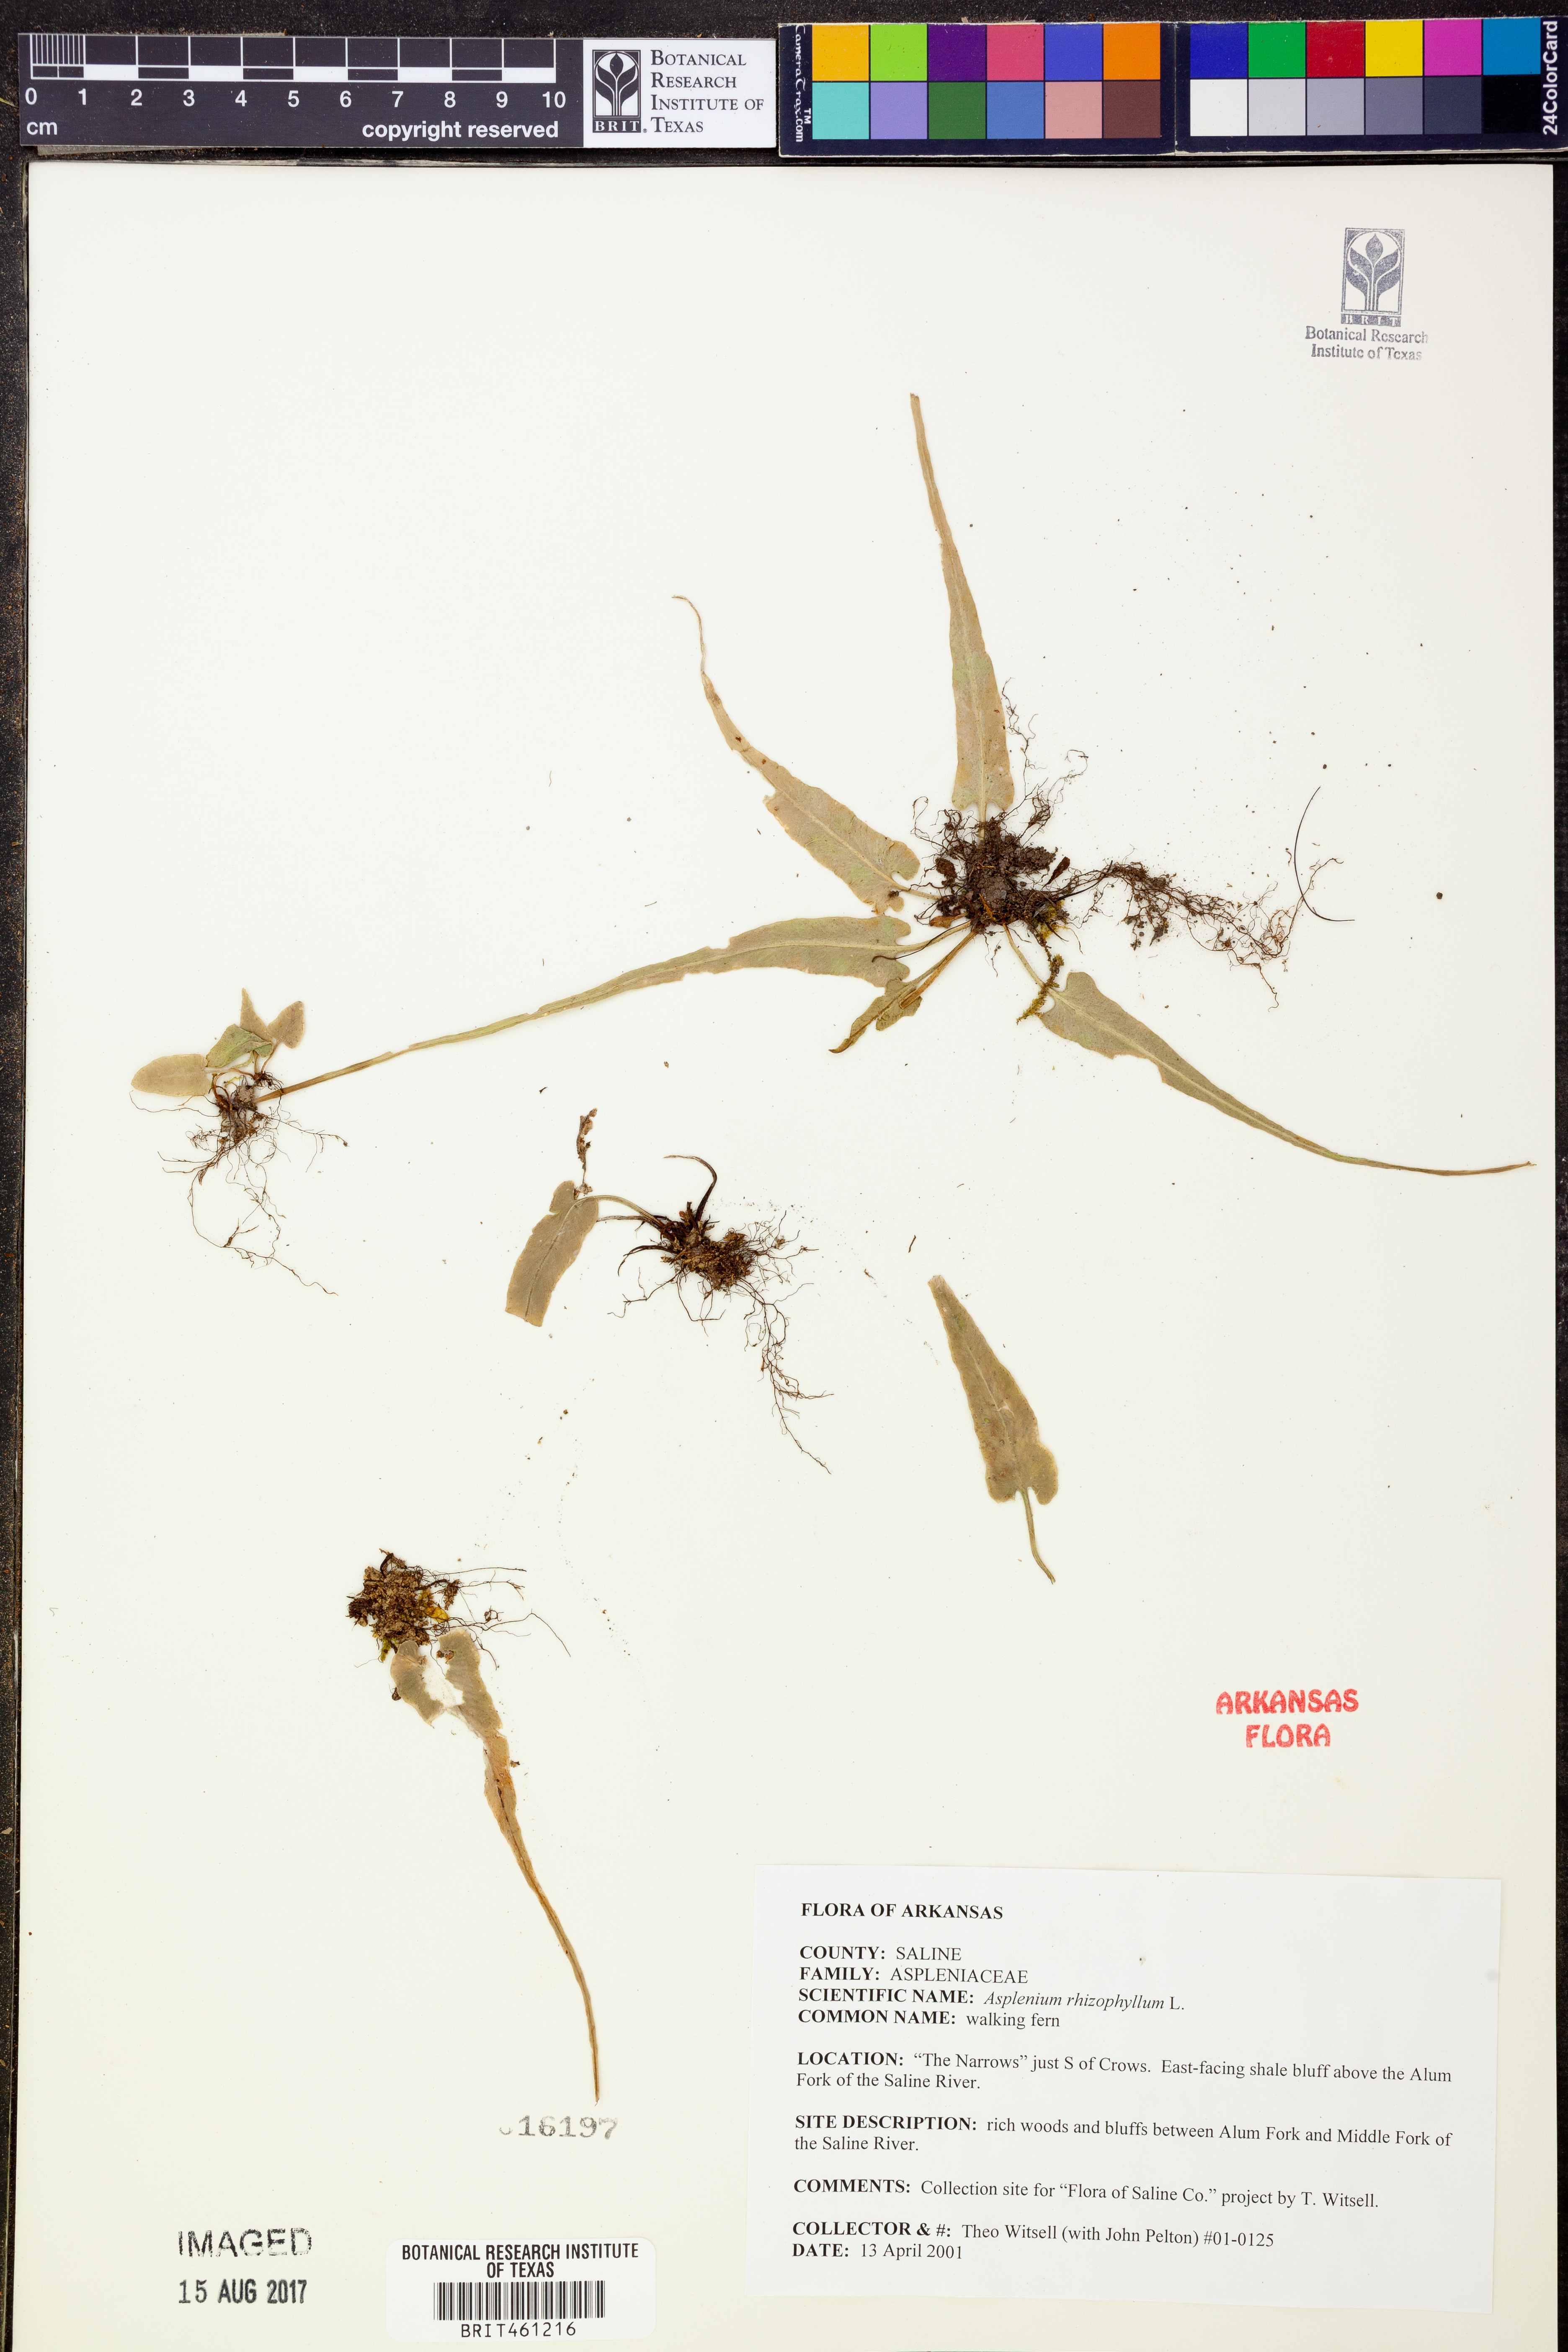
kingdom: Plantae
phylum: Tracheophyta
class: Polypodiopsida
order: Polypodiales
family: Aspleniaceae
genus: Asplenium
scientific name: Asplenium rhizophyllum
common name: Walking fern
